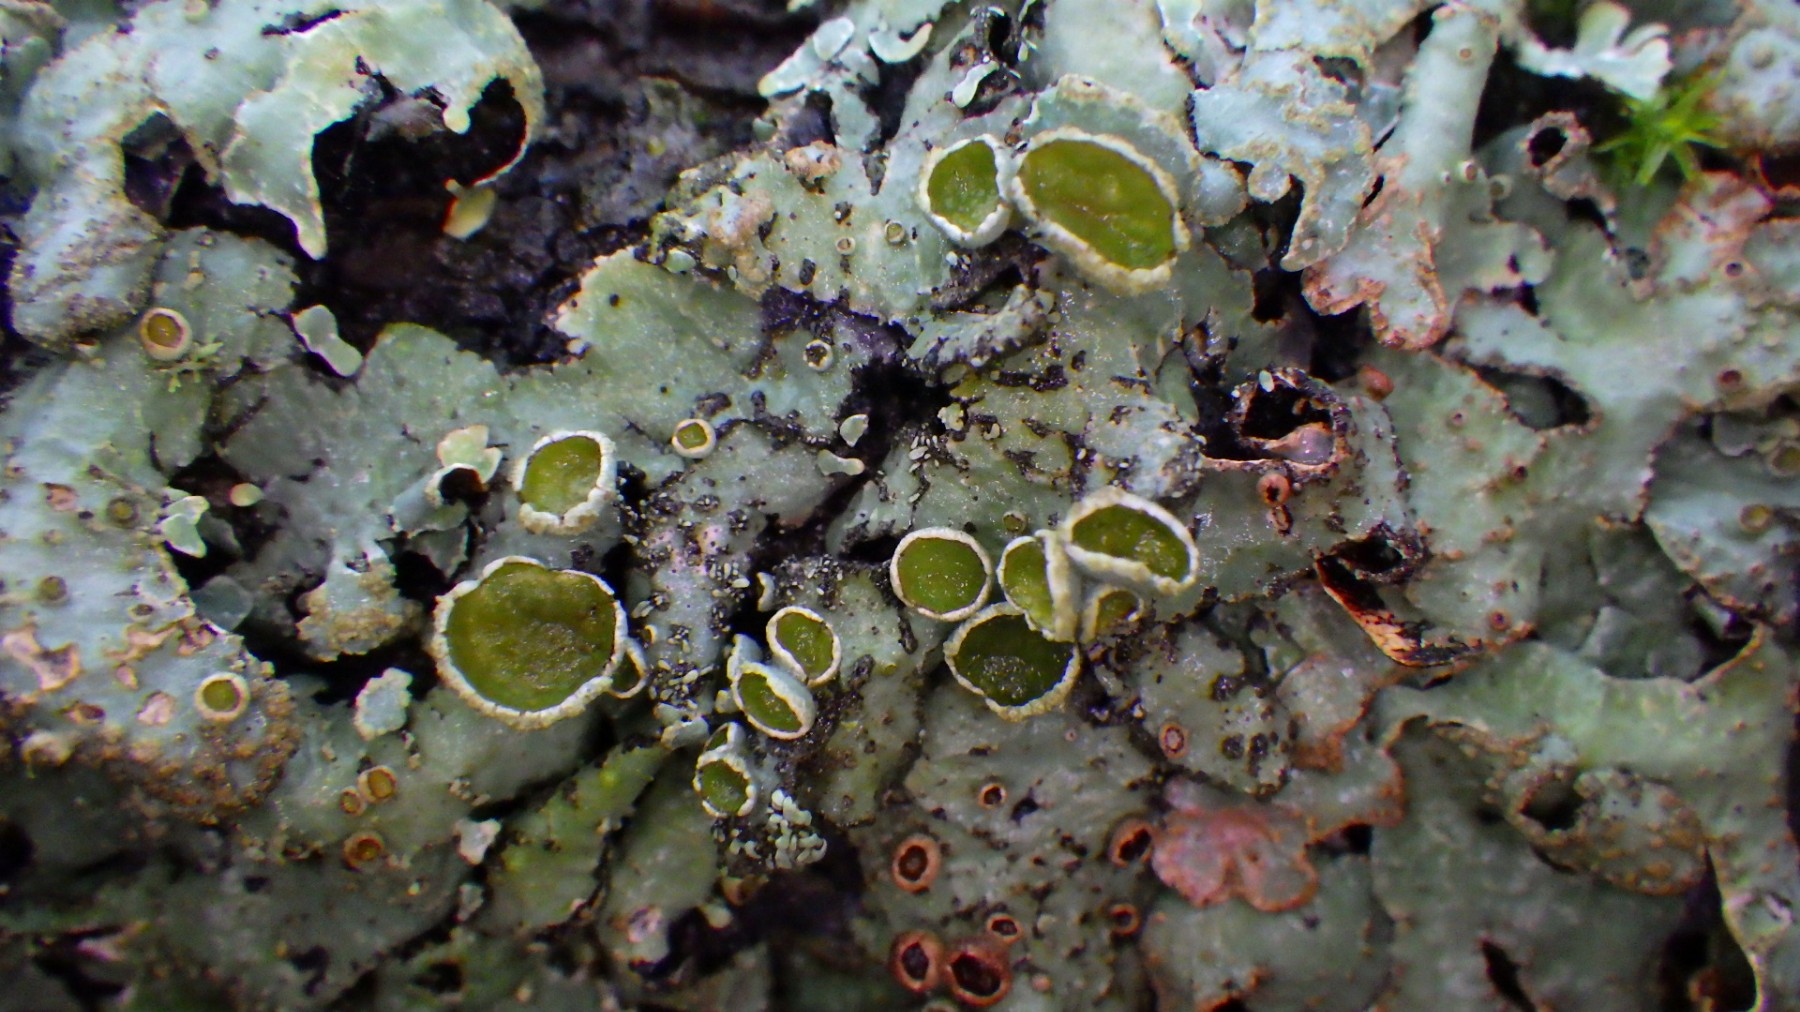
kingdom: Fungi
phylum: Ascomycota
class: Lecanoromycetes
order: Lecanorales
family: Parmeliaceae
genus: Parmelia
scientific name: Parmelia sulcata
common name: rynket skållav
